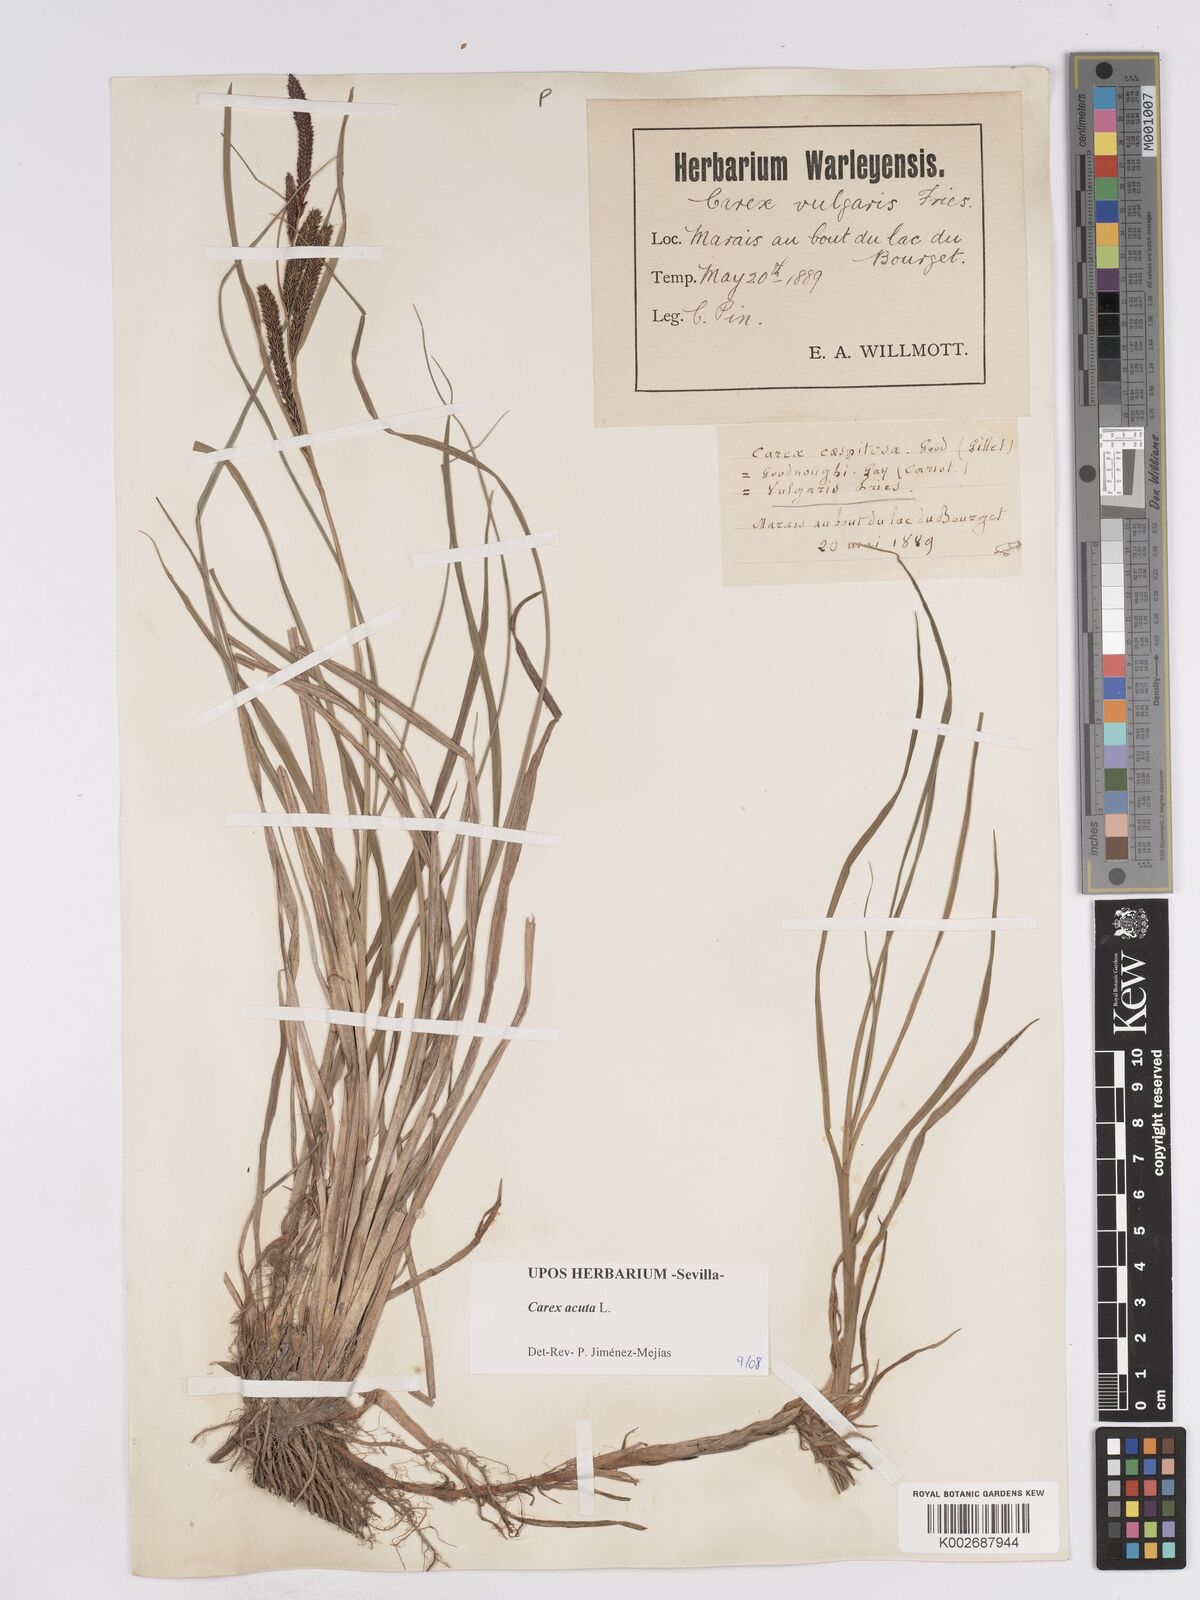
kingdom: Plantae
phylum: Tracheophyta
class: Liliopsida
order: Poales
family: Cyperaceae
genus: Carex
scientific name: Carex acuta
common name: Slender tufted-sedge
